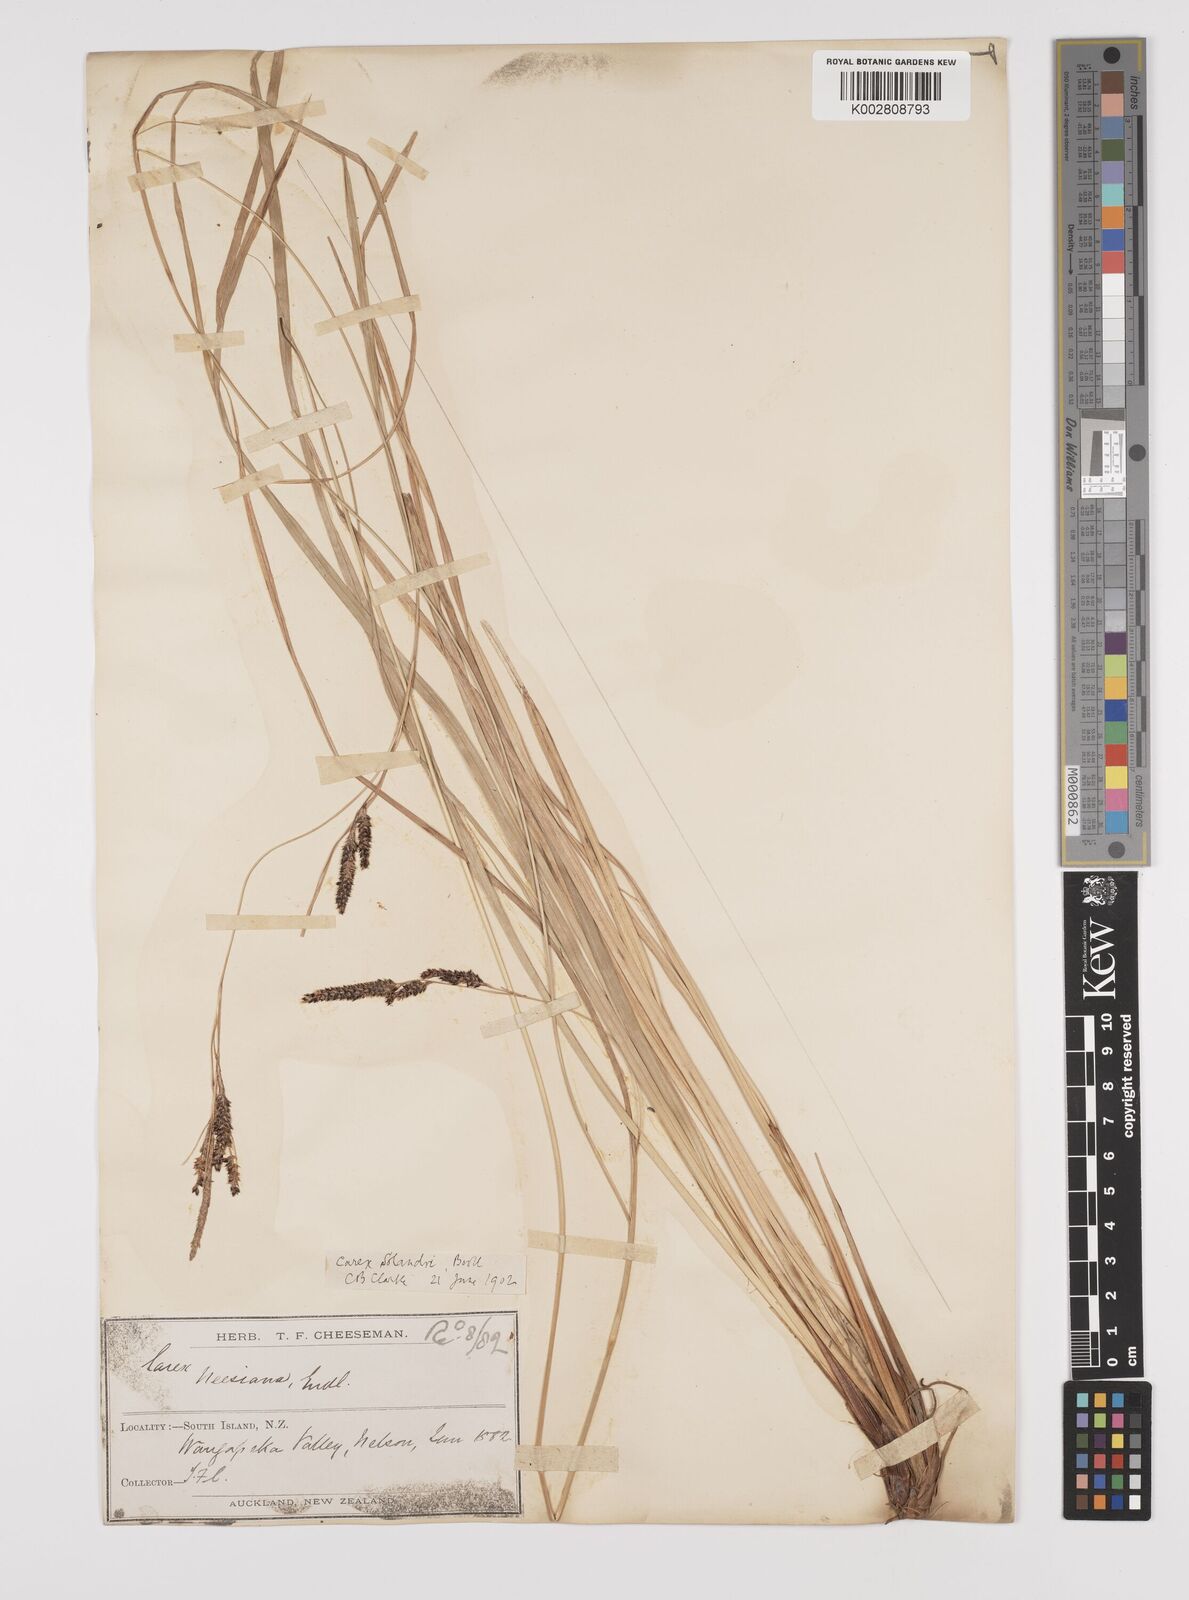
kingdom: Plantae
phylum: Tracheophyta
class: Liliopsida
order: Poales
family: Cyperaceae
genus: Carex
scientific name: Carex dissita
